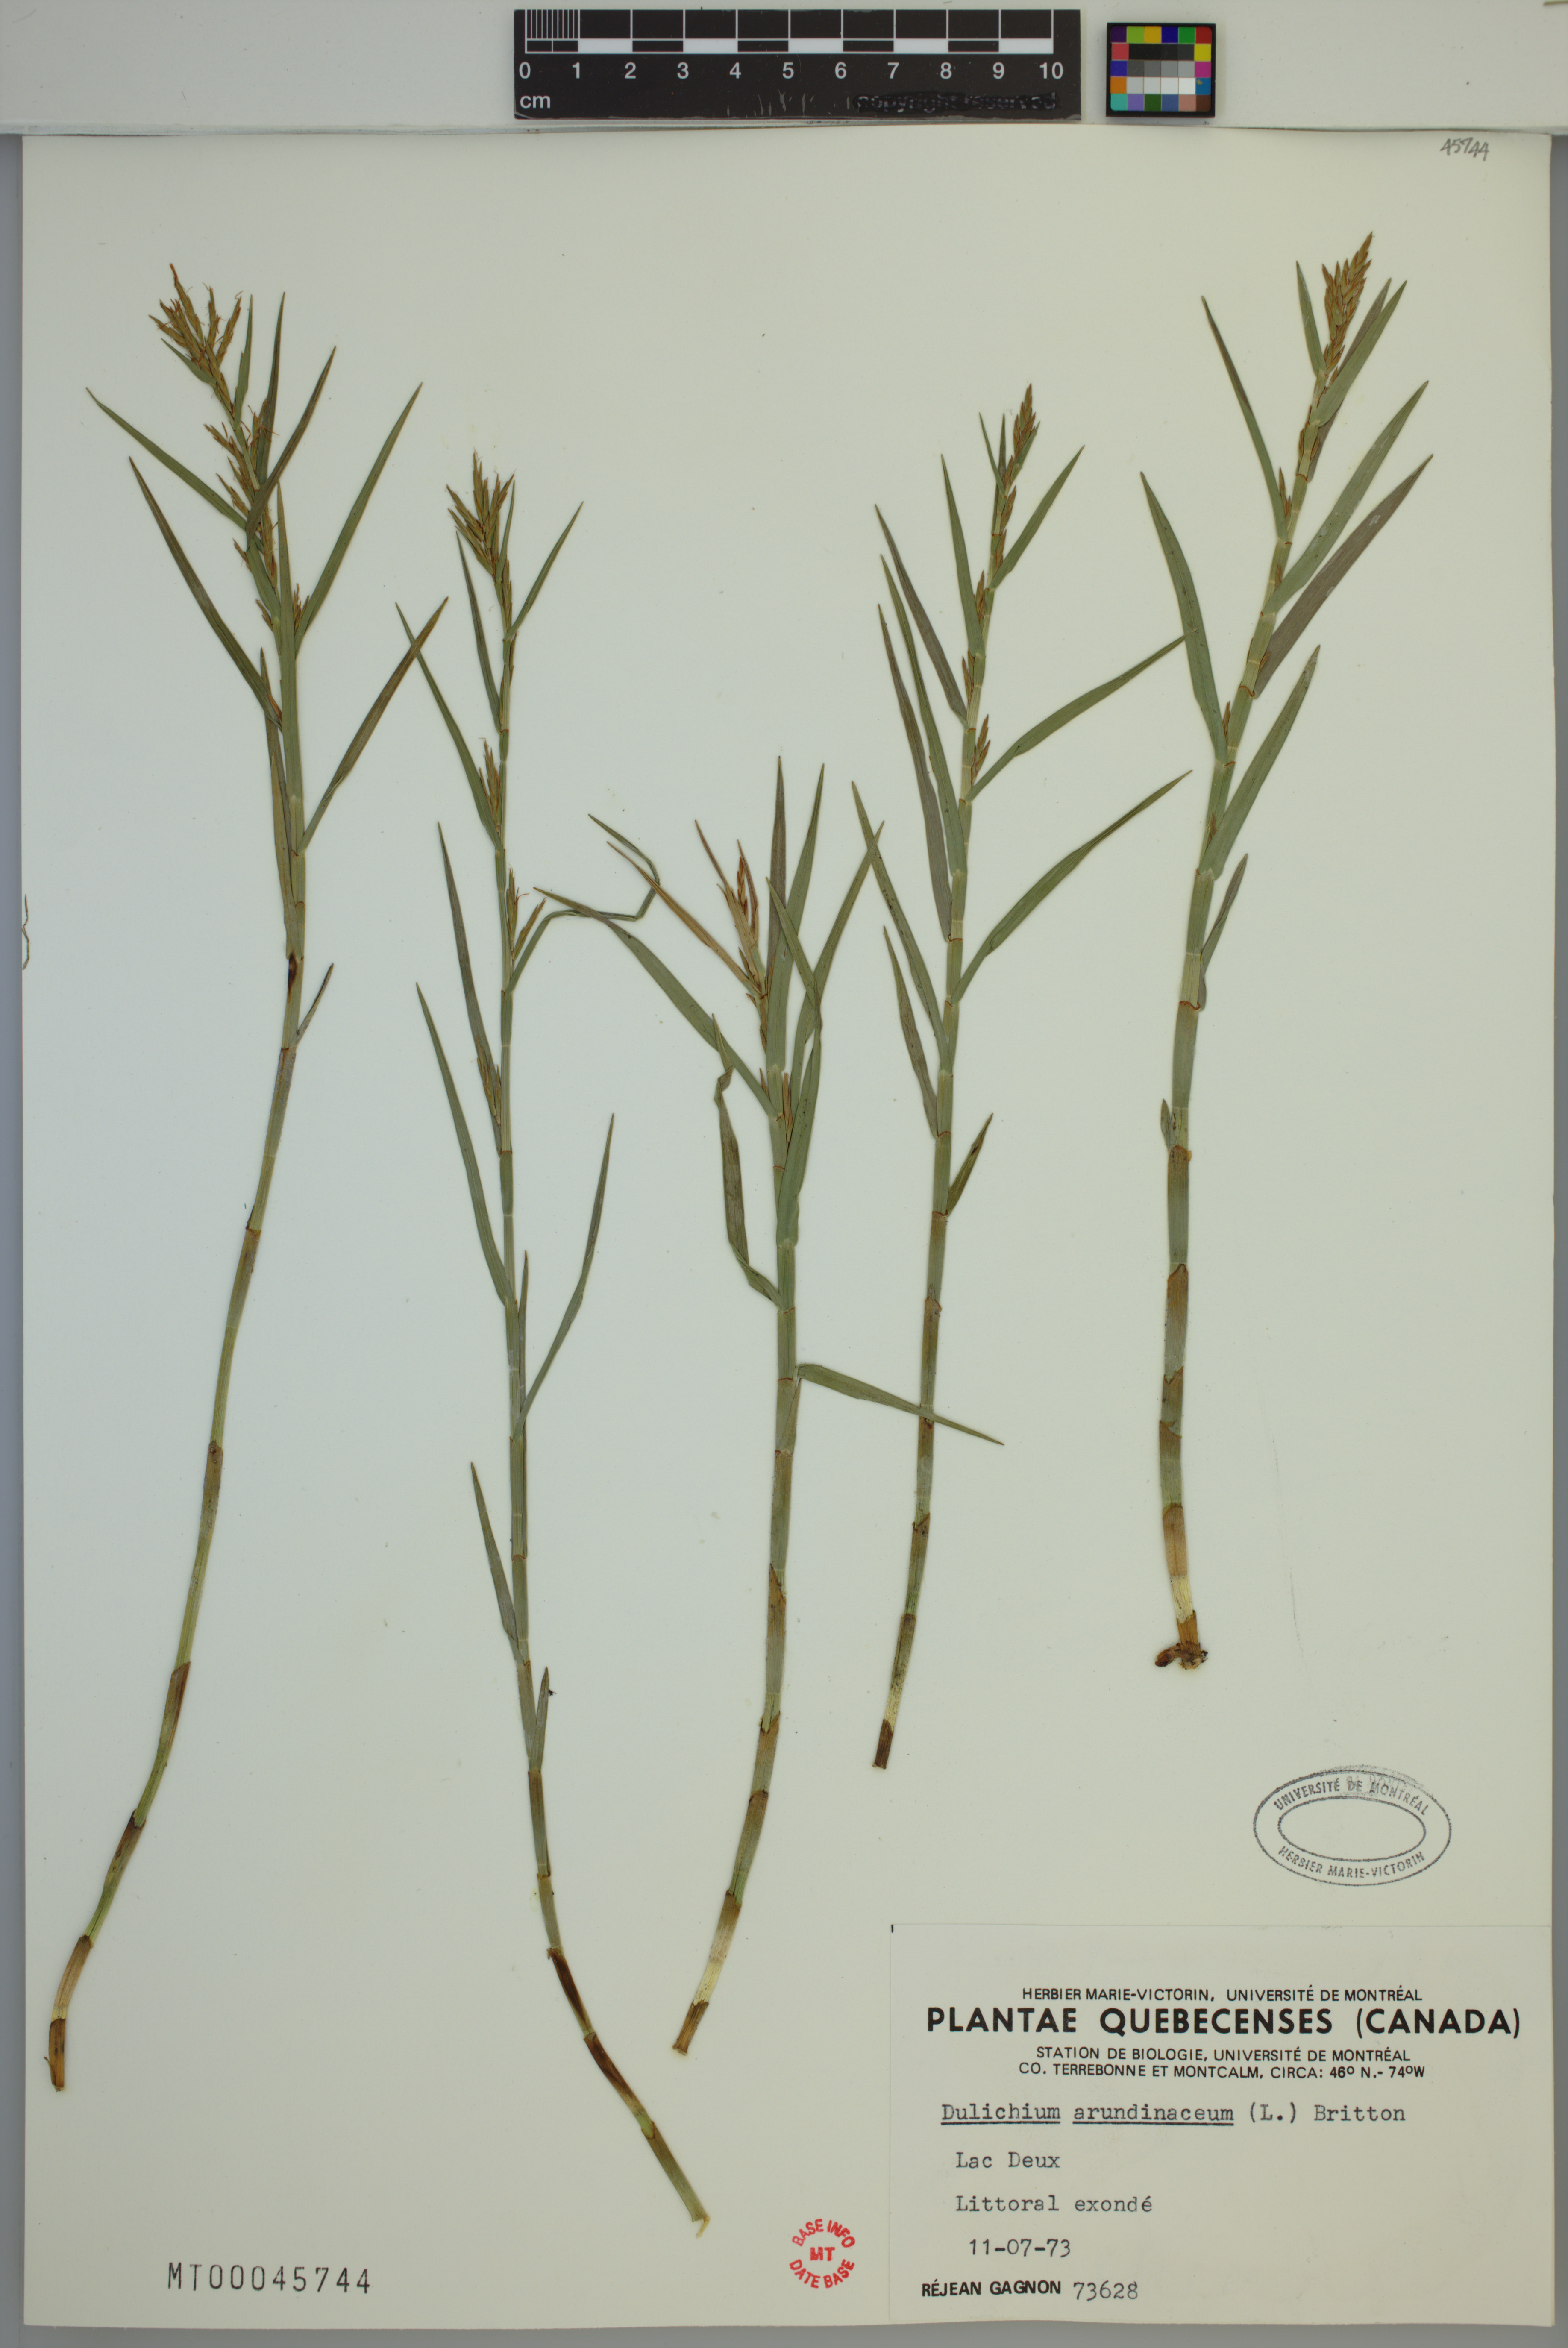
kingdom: Plantae
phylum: Tracheophyta
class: Liliopsida
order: Poales
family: Cyperaceae
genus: Dulichium
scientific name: Dulichium arundinaceum
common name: Three-way sedge
